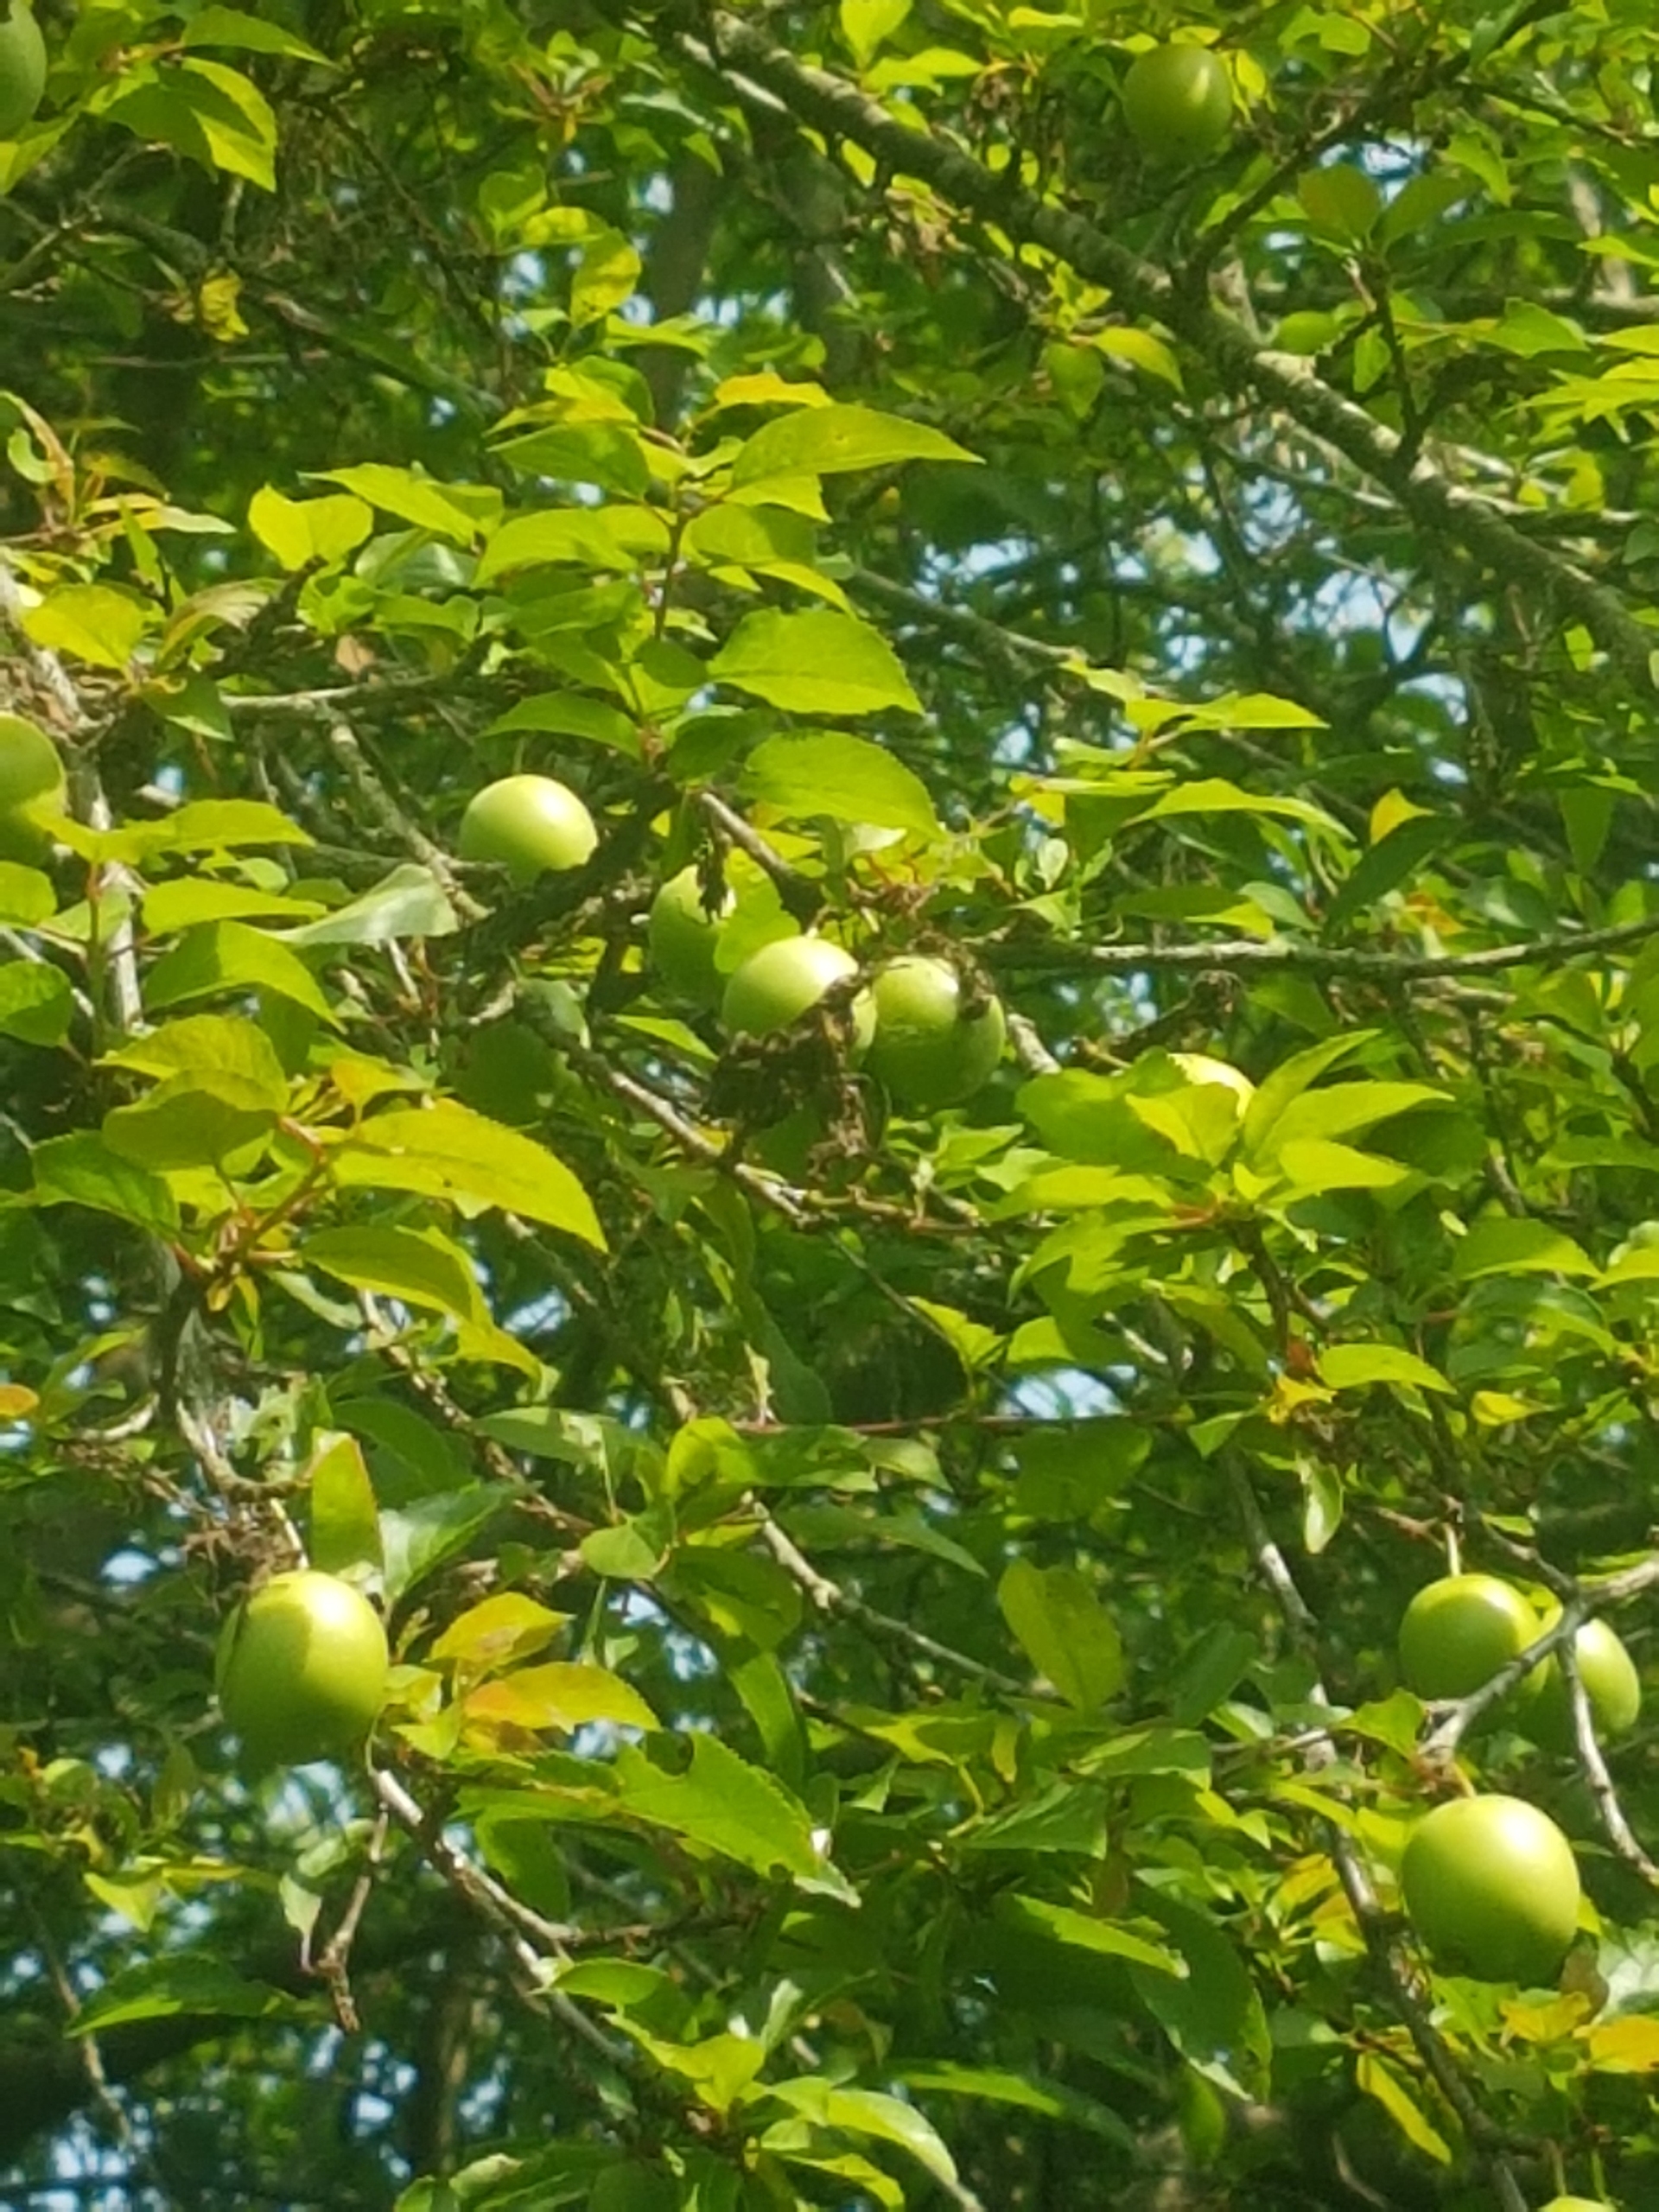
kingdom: Plantae
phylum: Tracheophyta
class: Magnoliopsida
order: Rosales
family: Rosaceae
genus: Prunus
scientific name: Prunus cerasifera
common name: Mirabel
